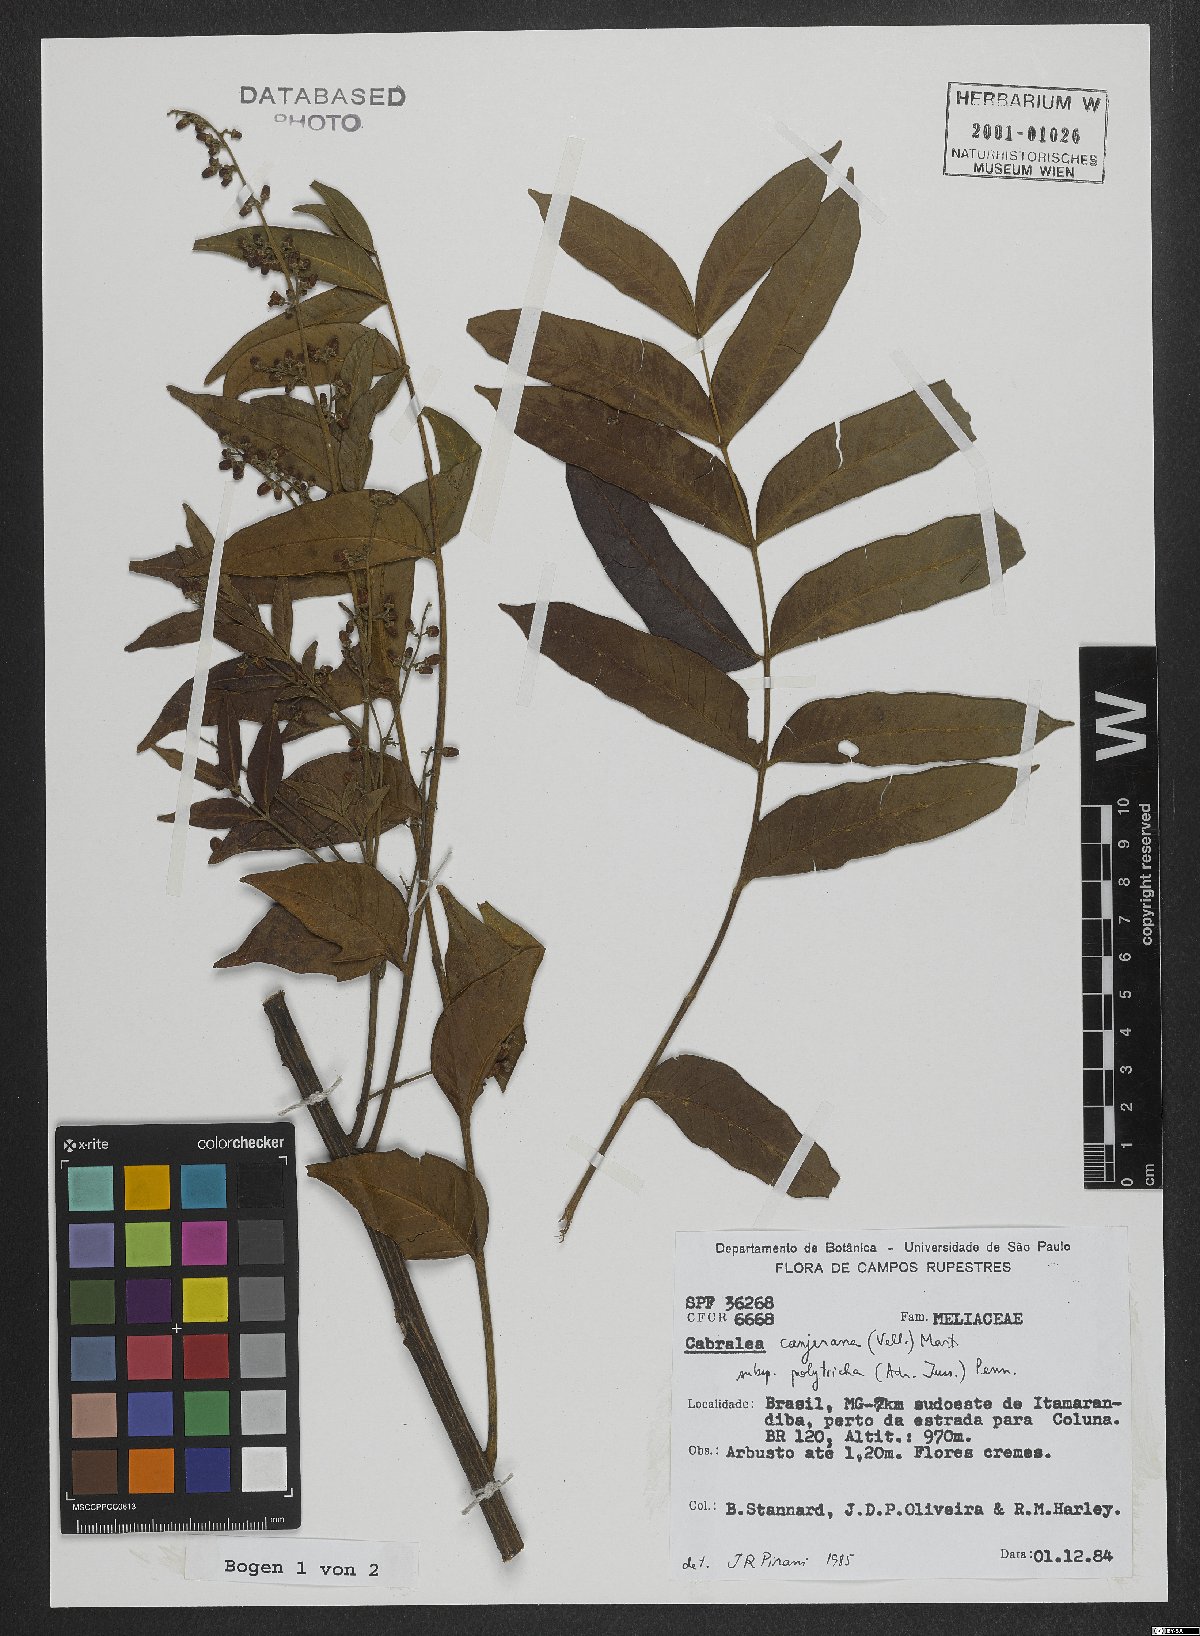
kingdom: Plantae
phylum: Tracheophyta
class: Magnoliopsida
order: Sapindales
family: Meliaceae
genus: Cabralea
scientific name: Cabralea canjerana
